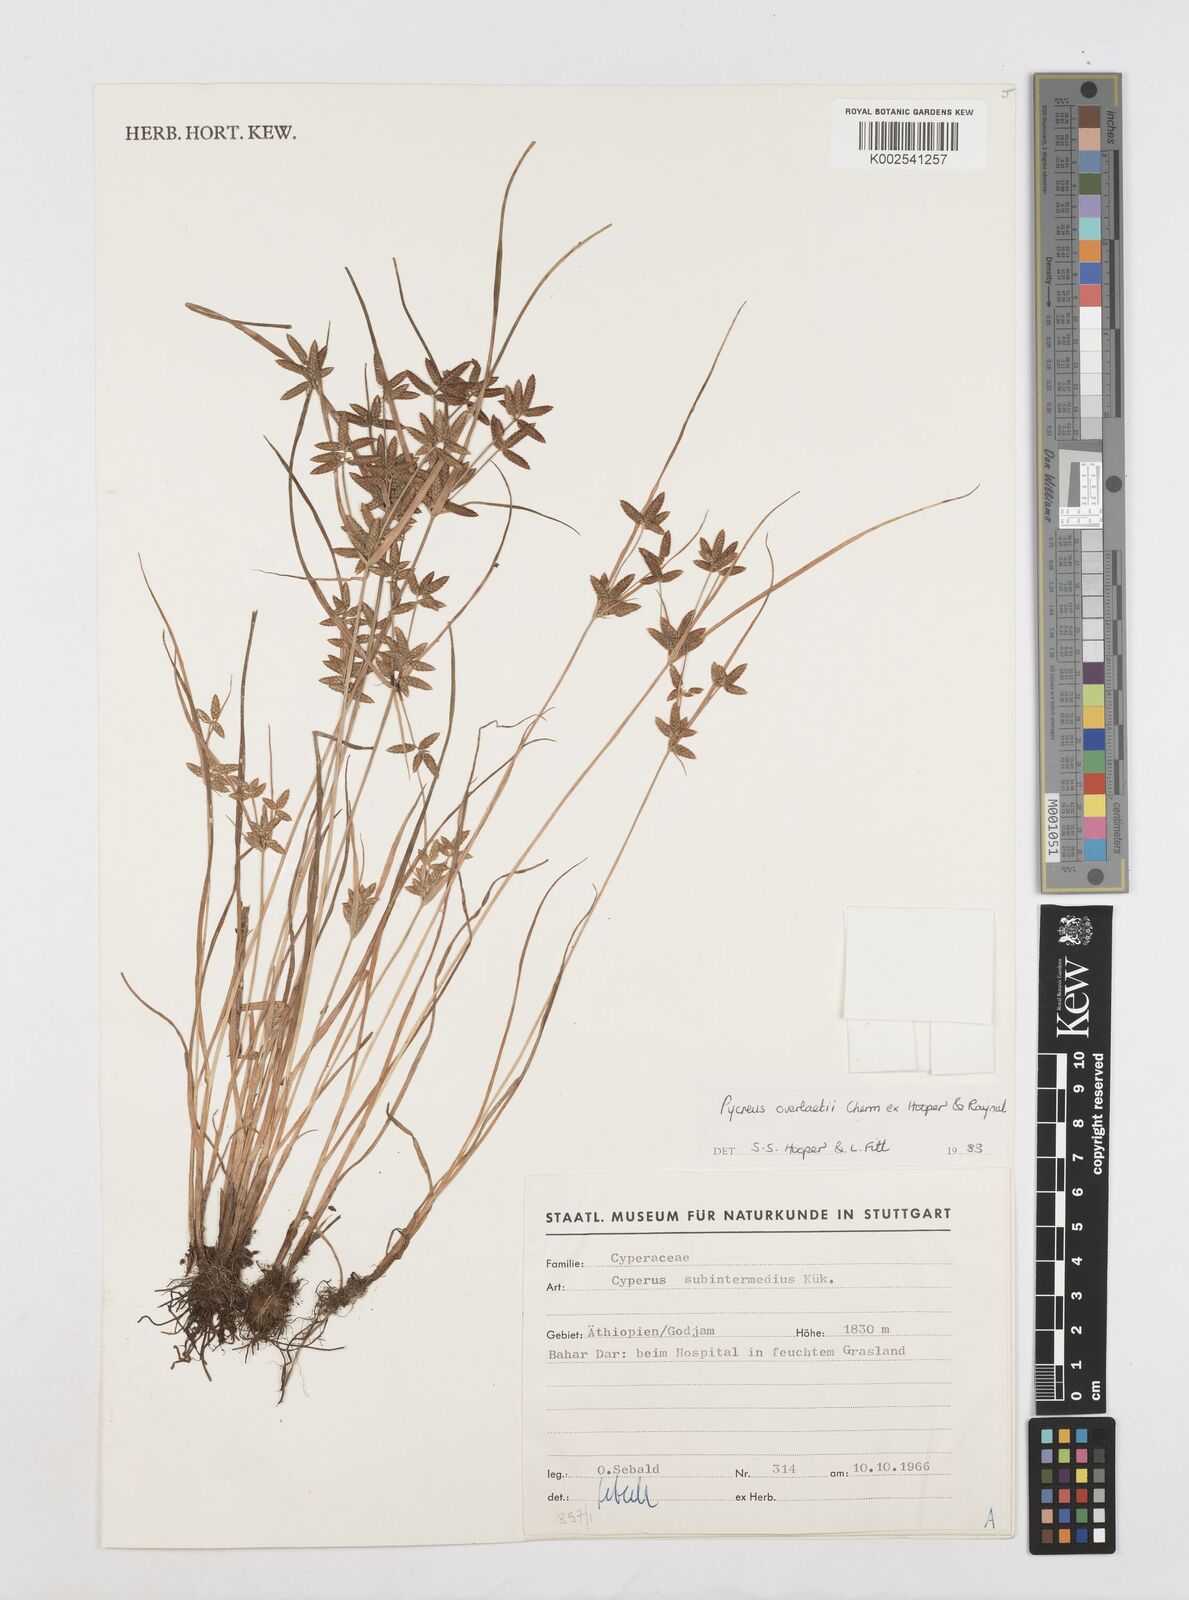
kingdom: Plantae
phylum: Tracheophyta
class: Liliopsida
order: Poales
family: Cyperaceae
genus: Cyperus
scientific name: Cyperus unioloides
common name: Uniola flatsedge
